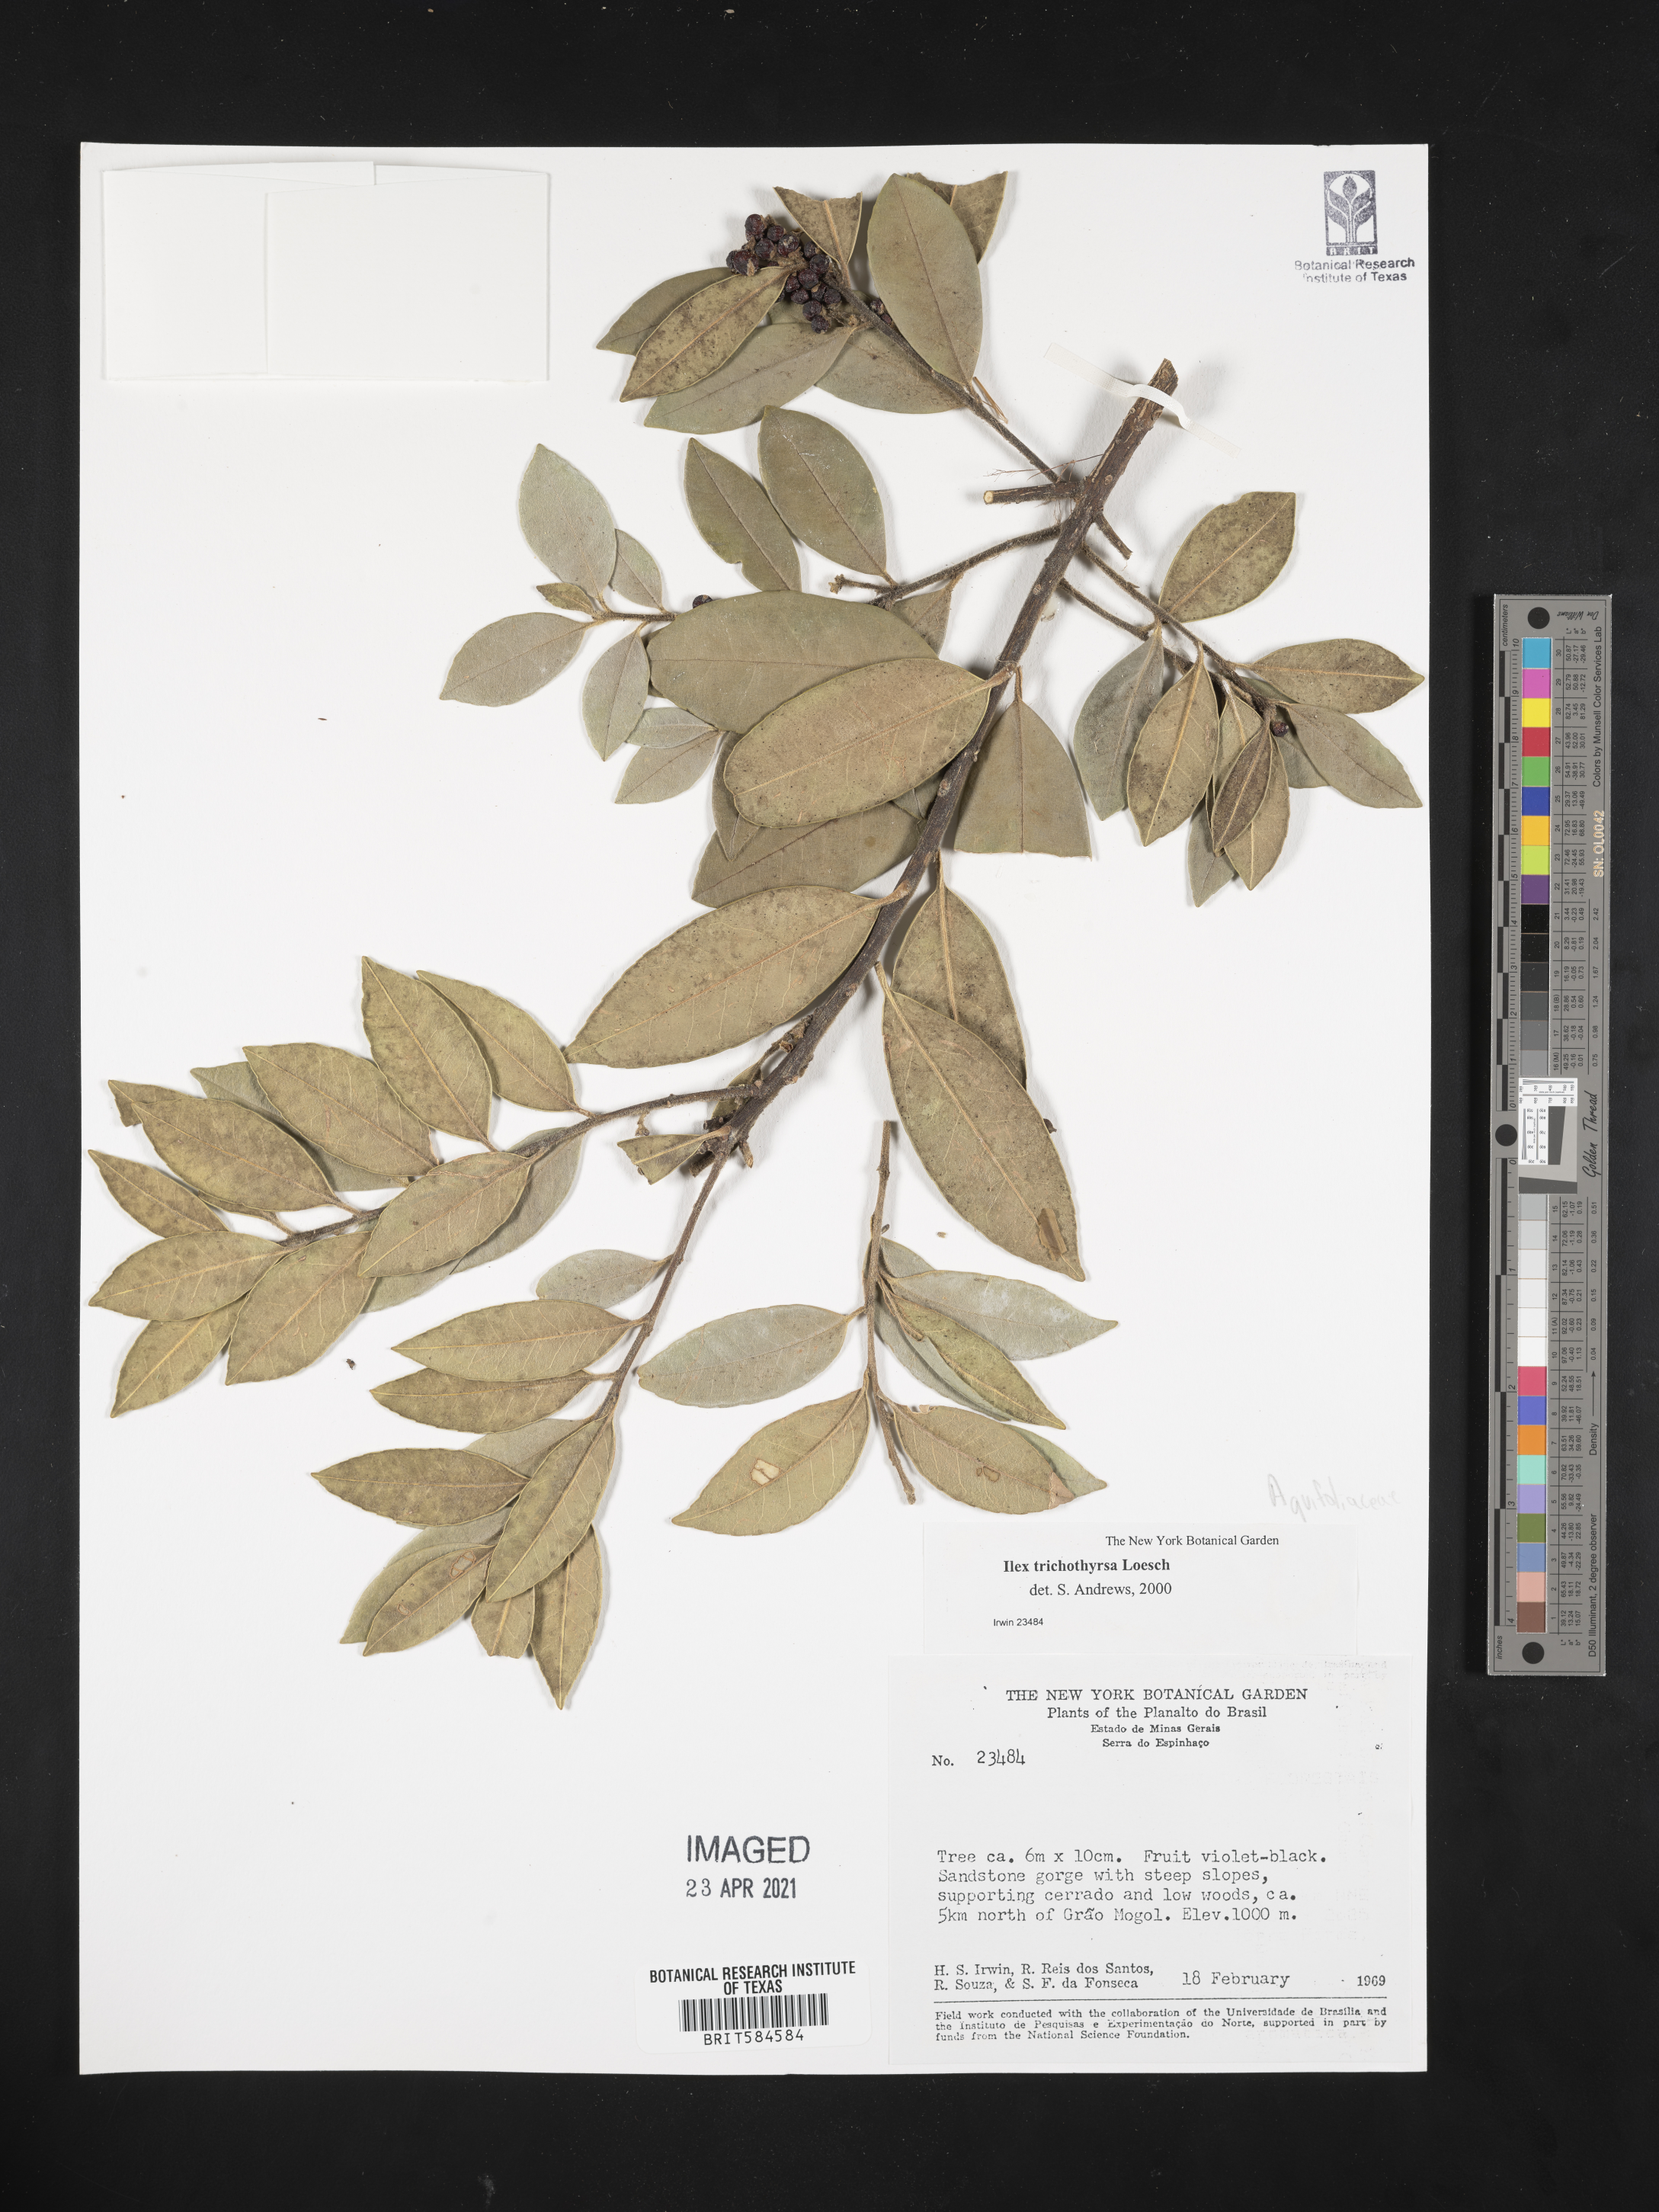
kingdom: Plantae
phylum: Tracheophyta
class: Magnoliopsida
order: Aquifoliales
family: Aquifoliaceae
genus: Ilex
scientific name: Ilex trichothyrsa
